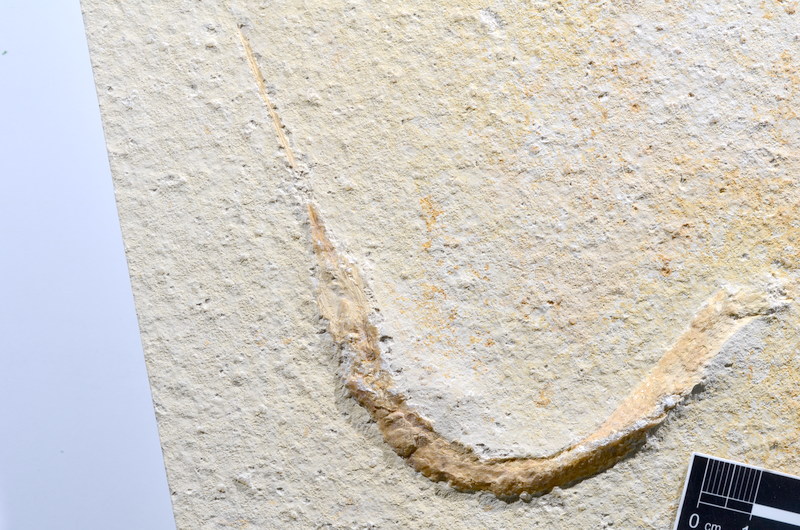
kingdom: Animalia
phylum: Chordata
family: Aspidorhynchidae
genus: Belonostomus
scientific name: Belonostomus
